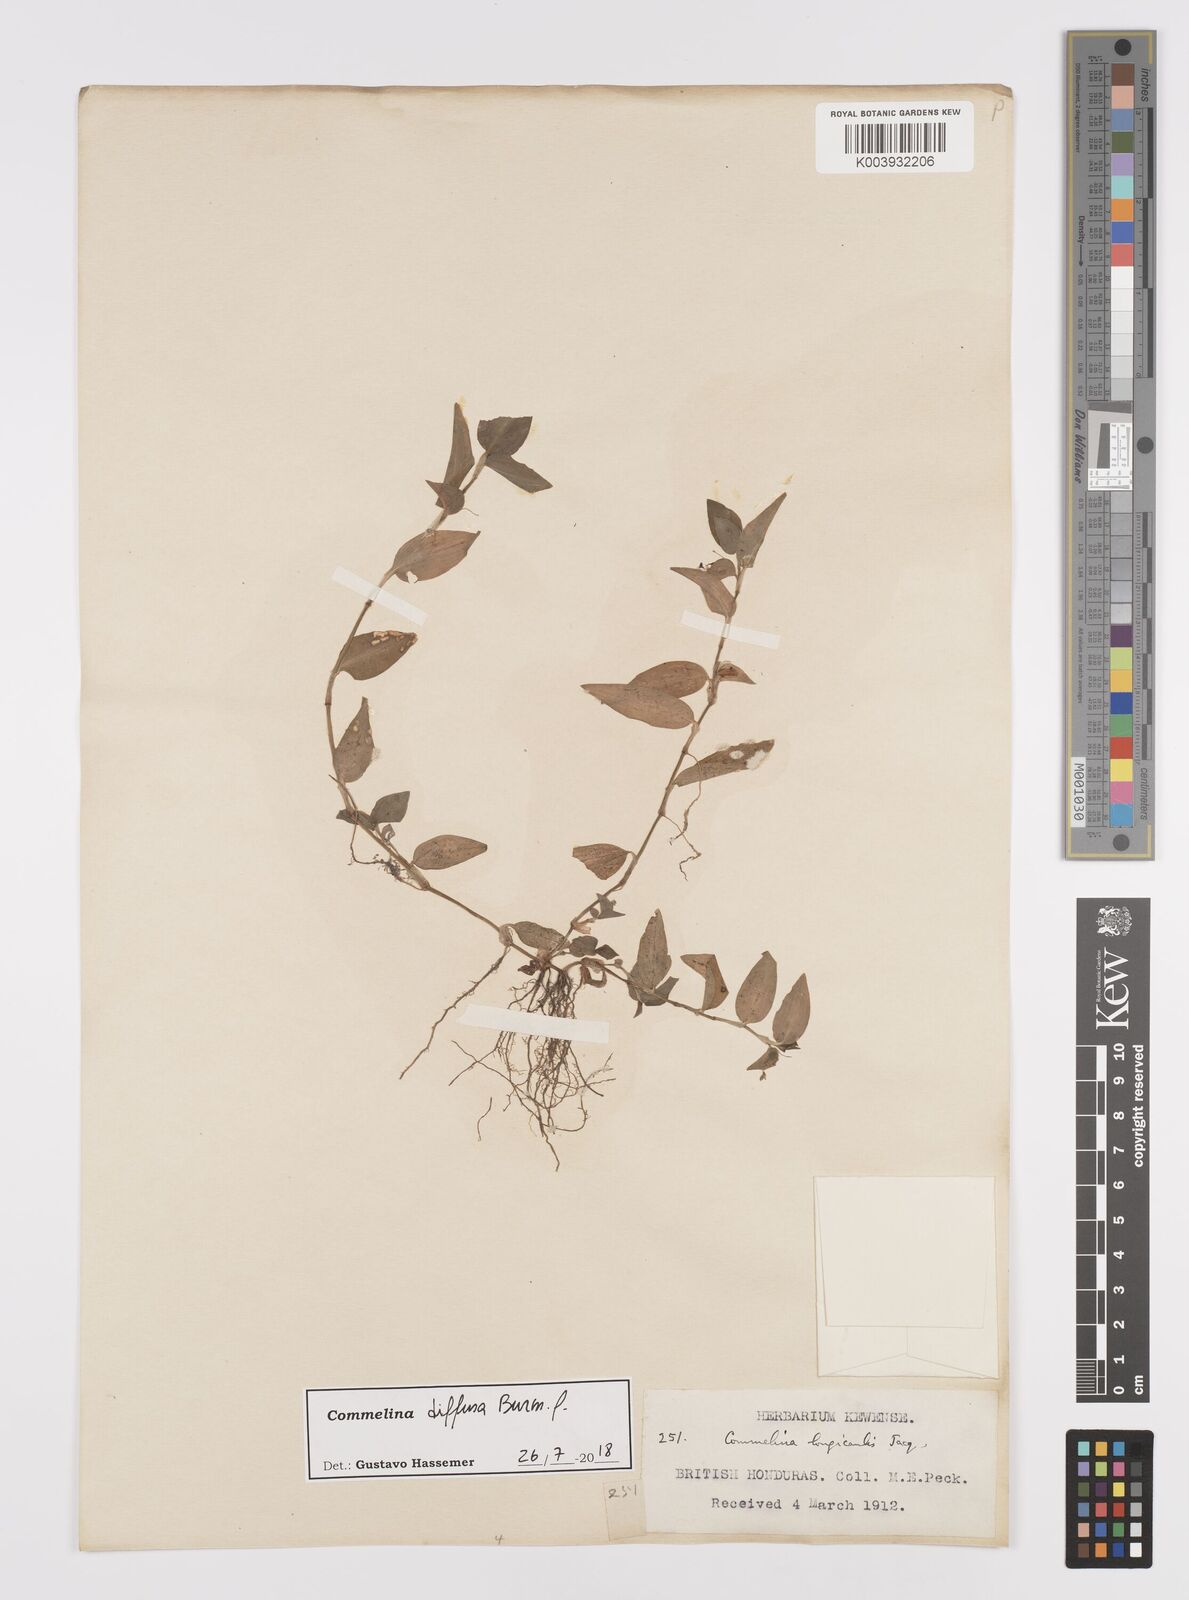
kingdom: Plantae
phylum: Tracheophyta
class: Liliopsida
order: Commelinales
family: Commelinaceae
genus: Commelina
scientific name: Commelina diffusa
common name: Climbing dayflower
